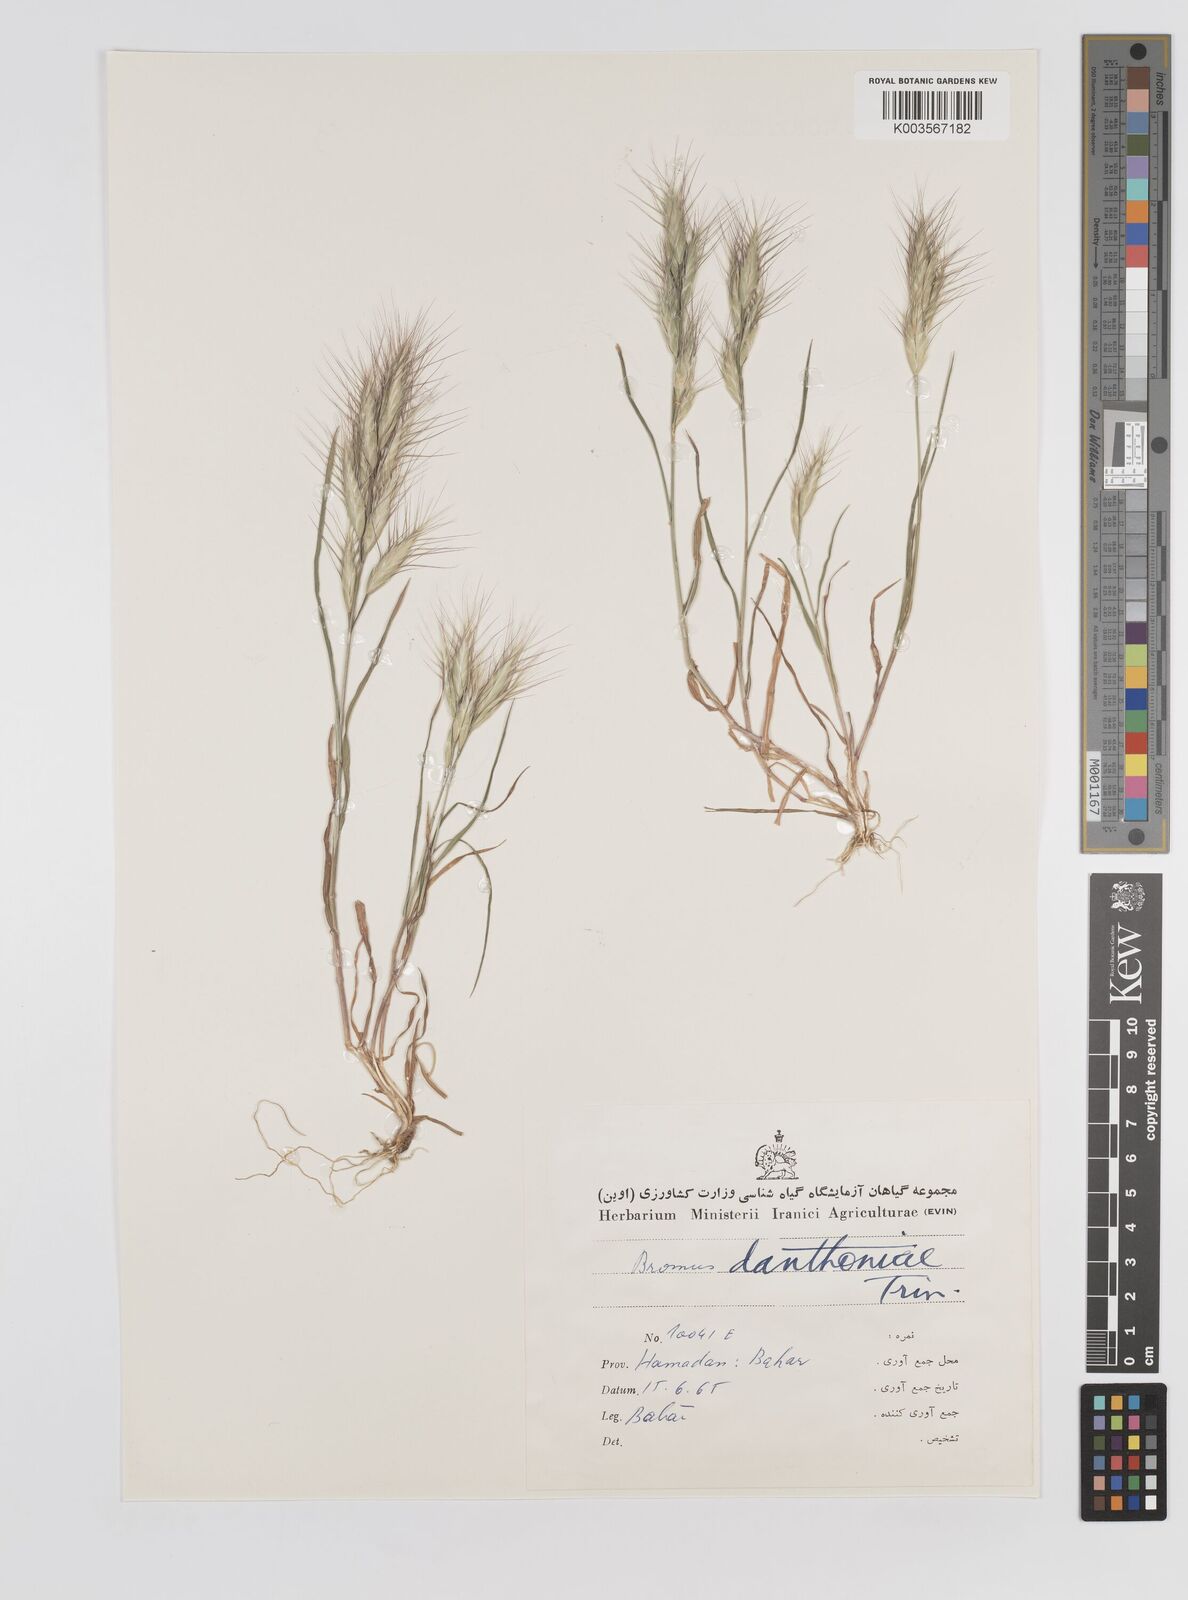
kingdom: Plantae
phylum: Tracheophyta
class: Liliopsida
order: Poales
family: Poaceae
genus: Bromus
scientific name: Bromus danthoniae
